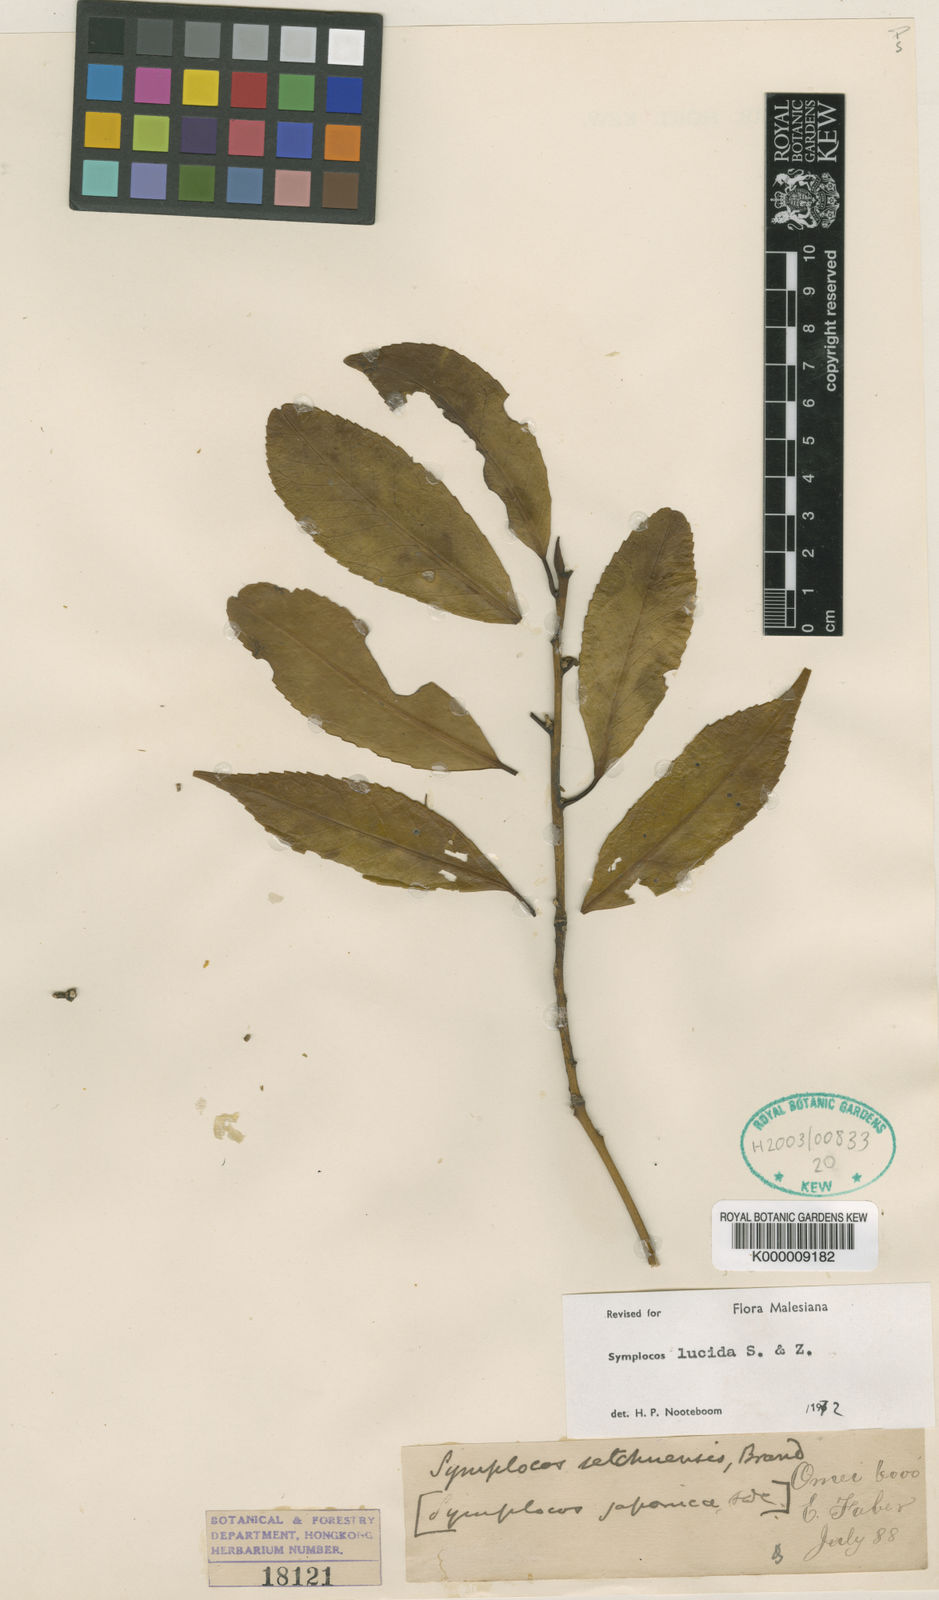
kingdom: Plantae
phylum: Tracheophyta
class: Magnoliopsida
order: Ericales
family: Symplocaceae
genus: Symplocos
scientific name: Symplocos
